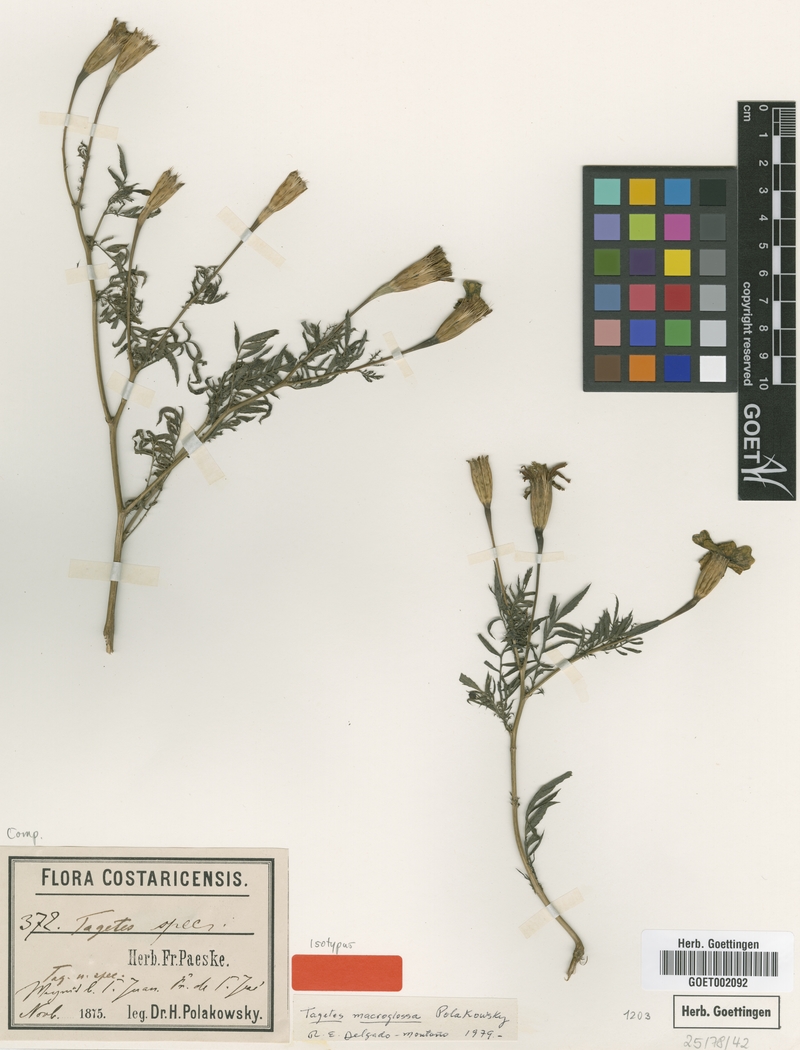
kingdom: Plantae
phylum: Tracheophyta
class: Magnoliopsida
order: Asterales
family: Asteraceae
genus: Tagetes
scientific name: Tagetes tenuifolia
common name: Signet marigold
